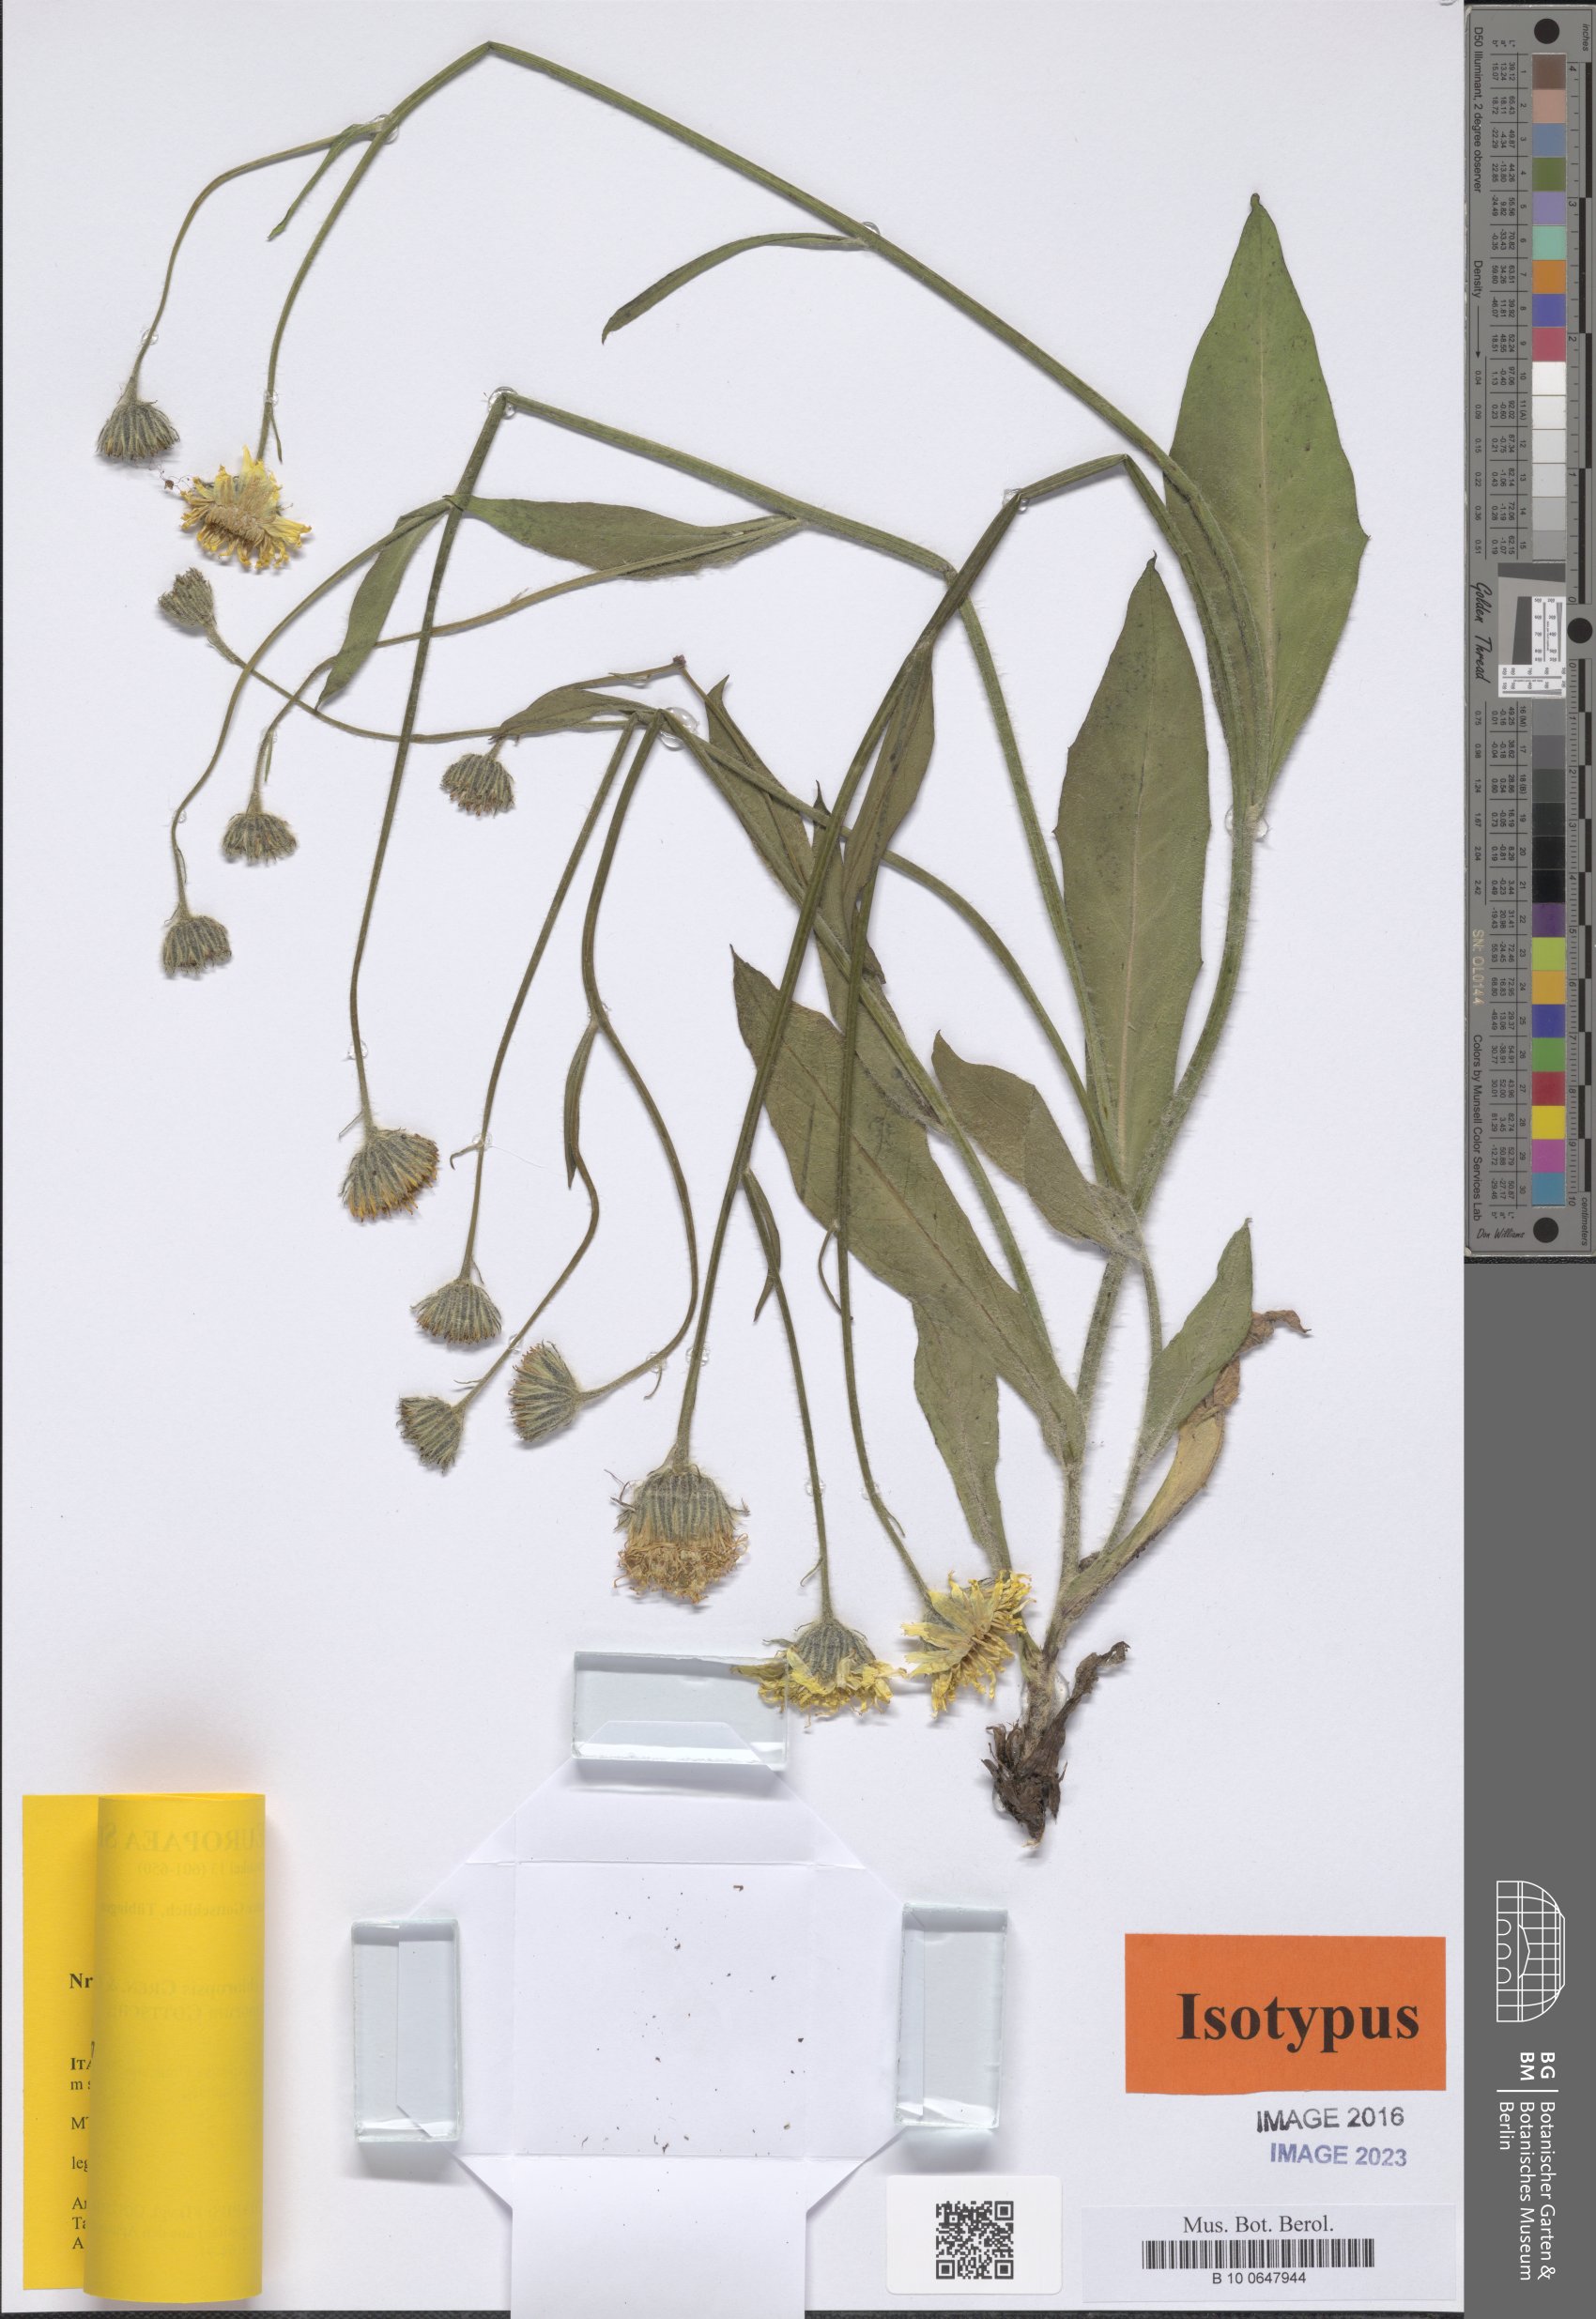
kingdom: Plantae
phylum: Tracheophyta
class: Magnoliopsida
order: Asterales
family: Asteraceae
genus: Hieracium
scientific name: Hieracium chloropsis
